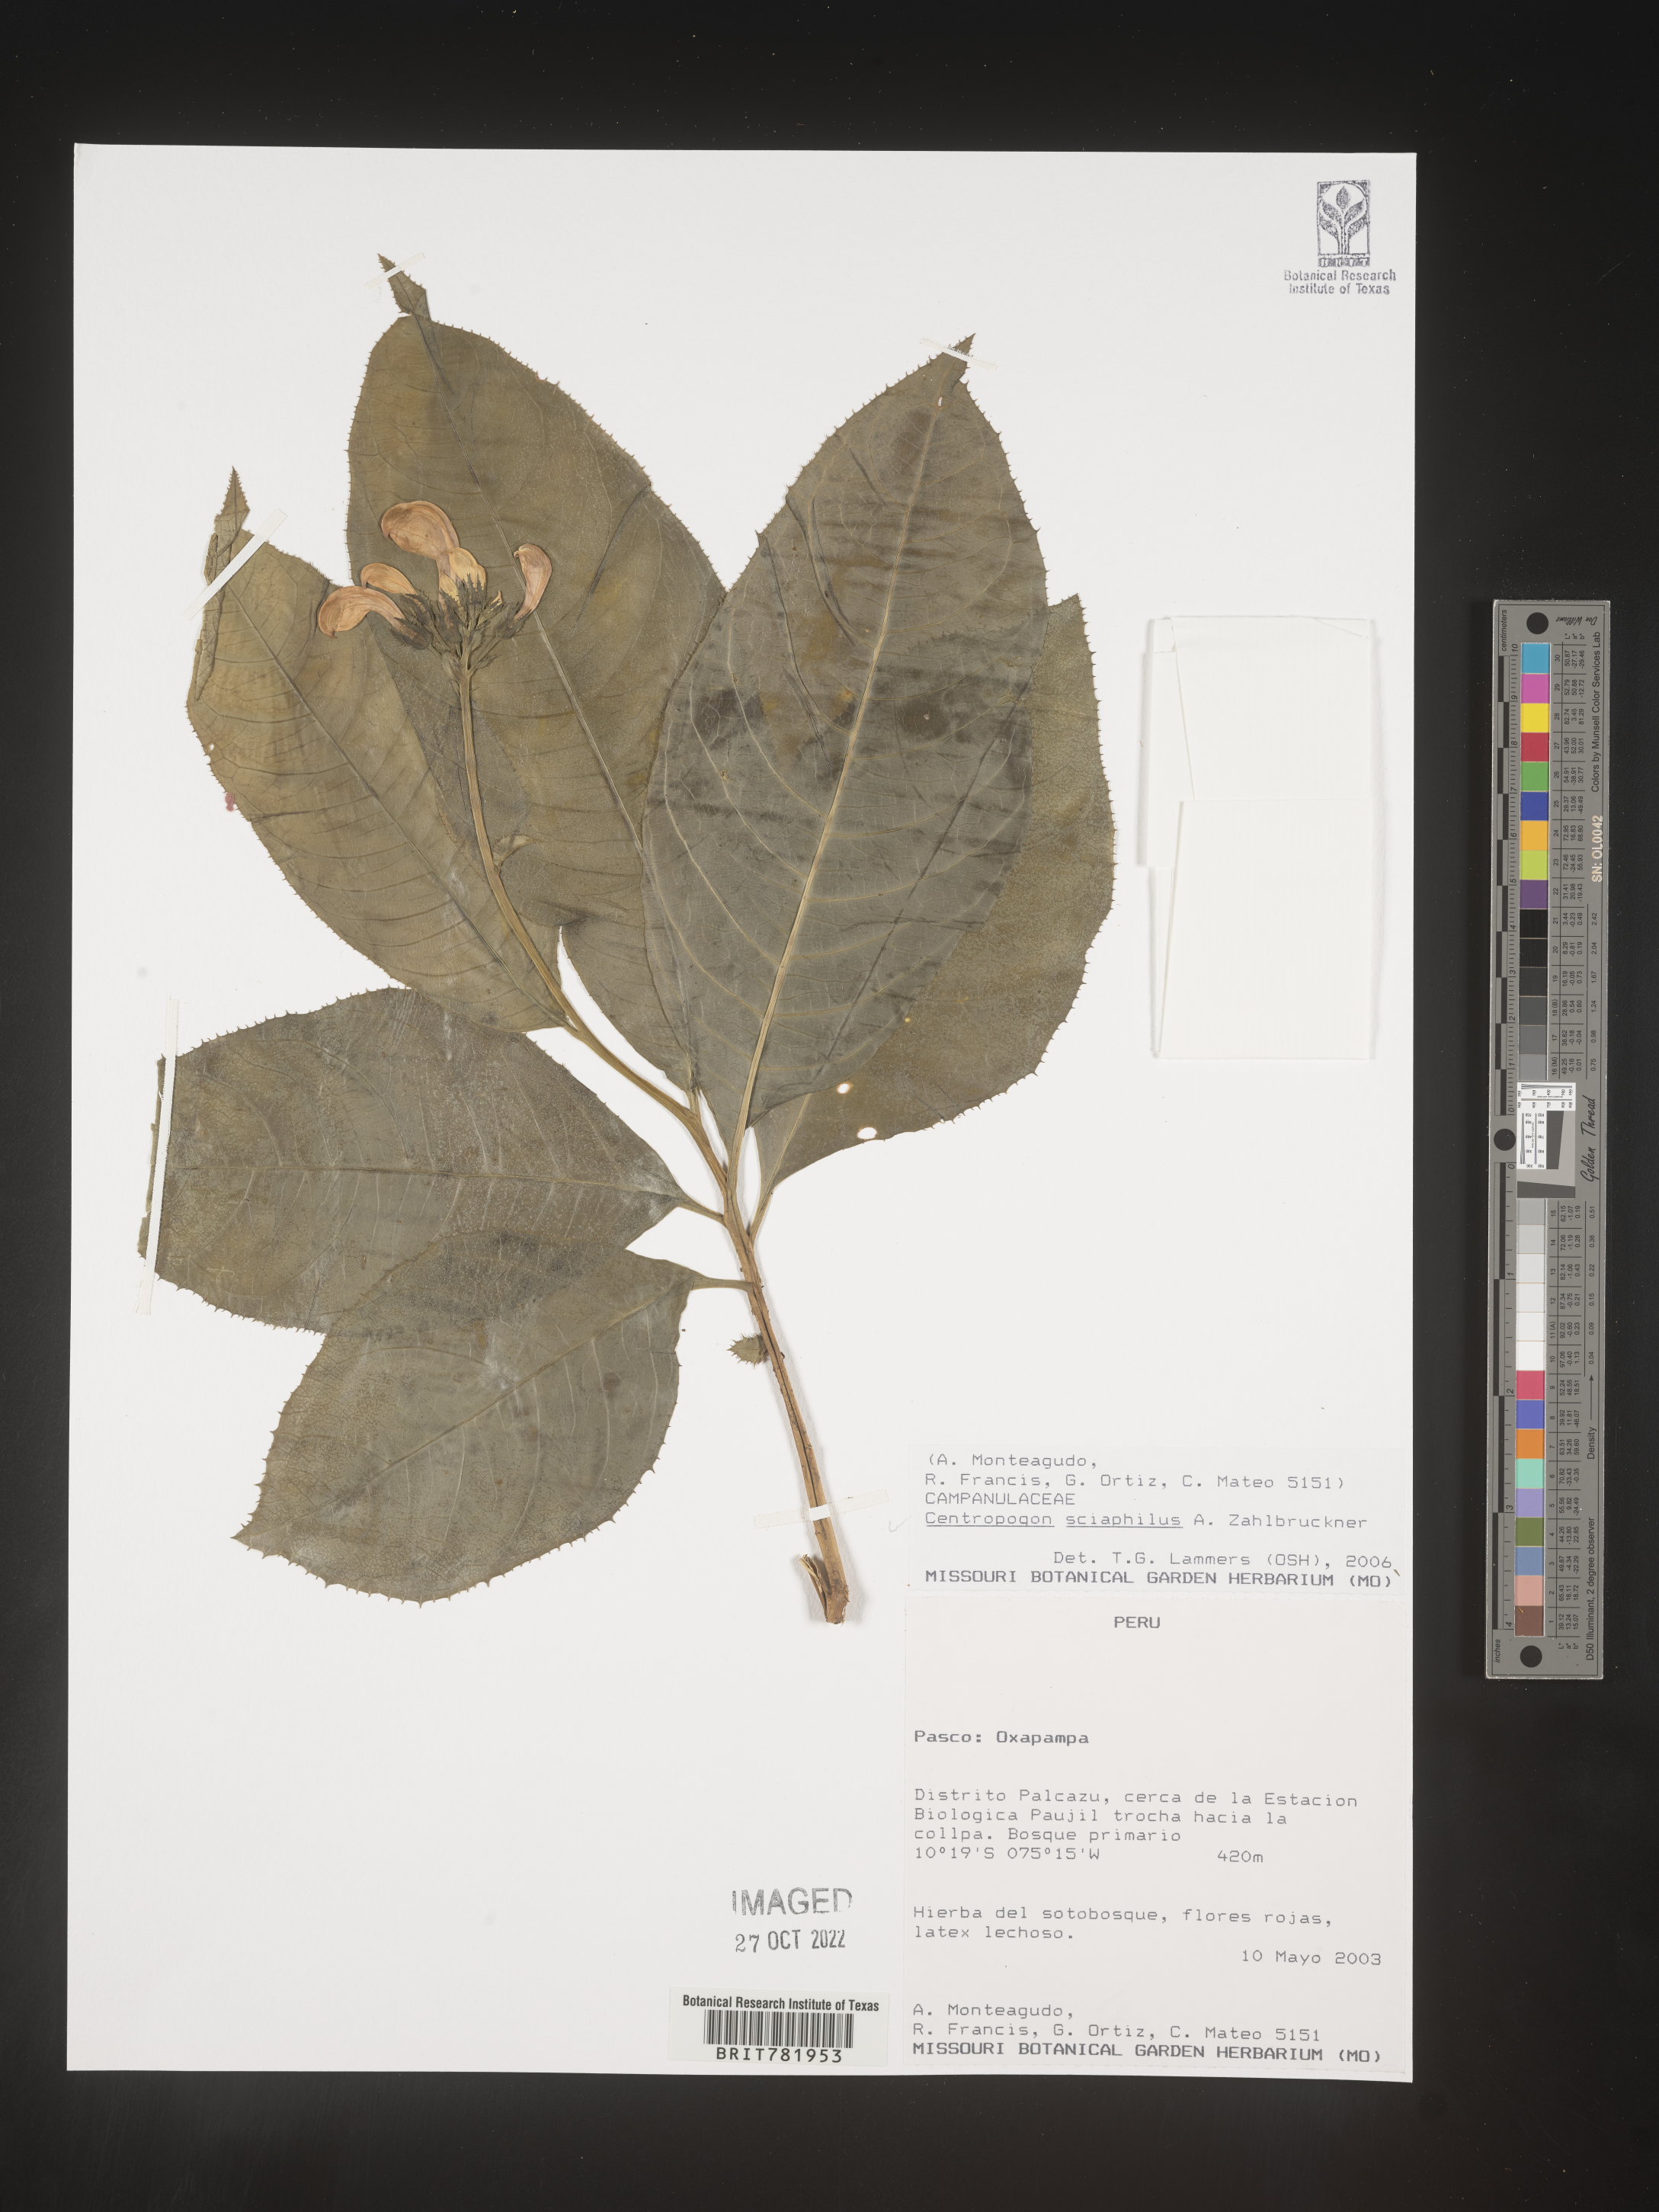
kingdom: Plantae
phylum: Tracheophyta
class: Magnoliopsida
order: Asterales
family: Campanulaceae
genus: Centropogon
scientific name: Centropogon
